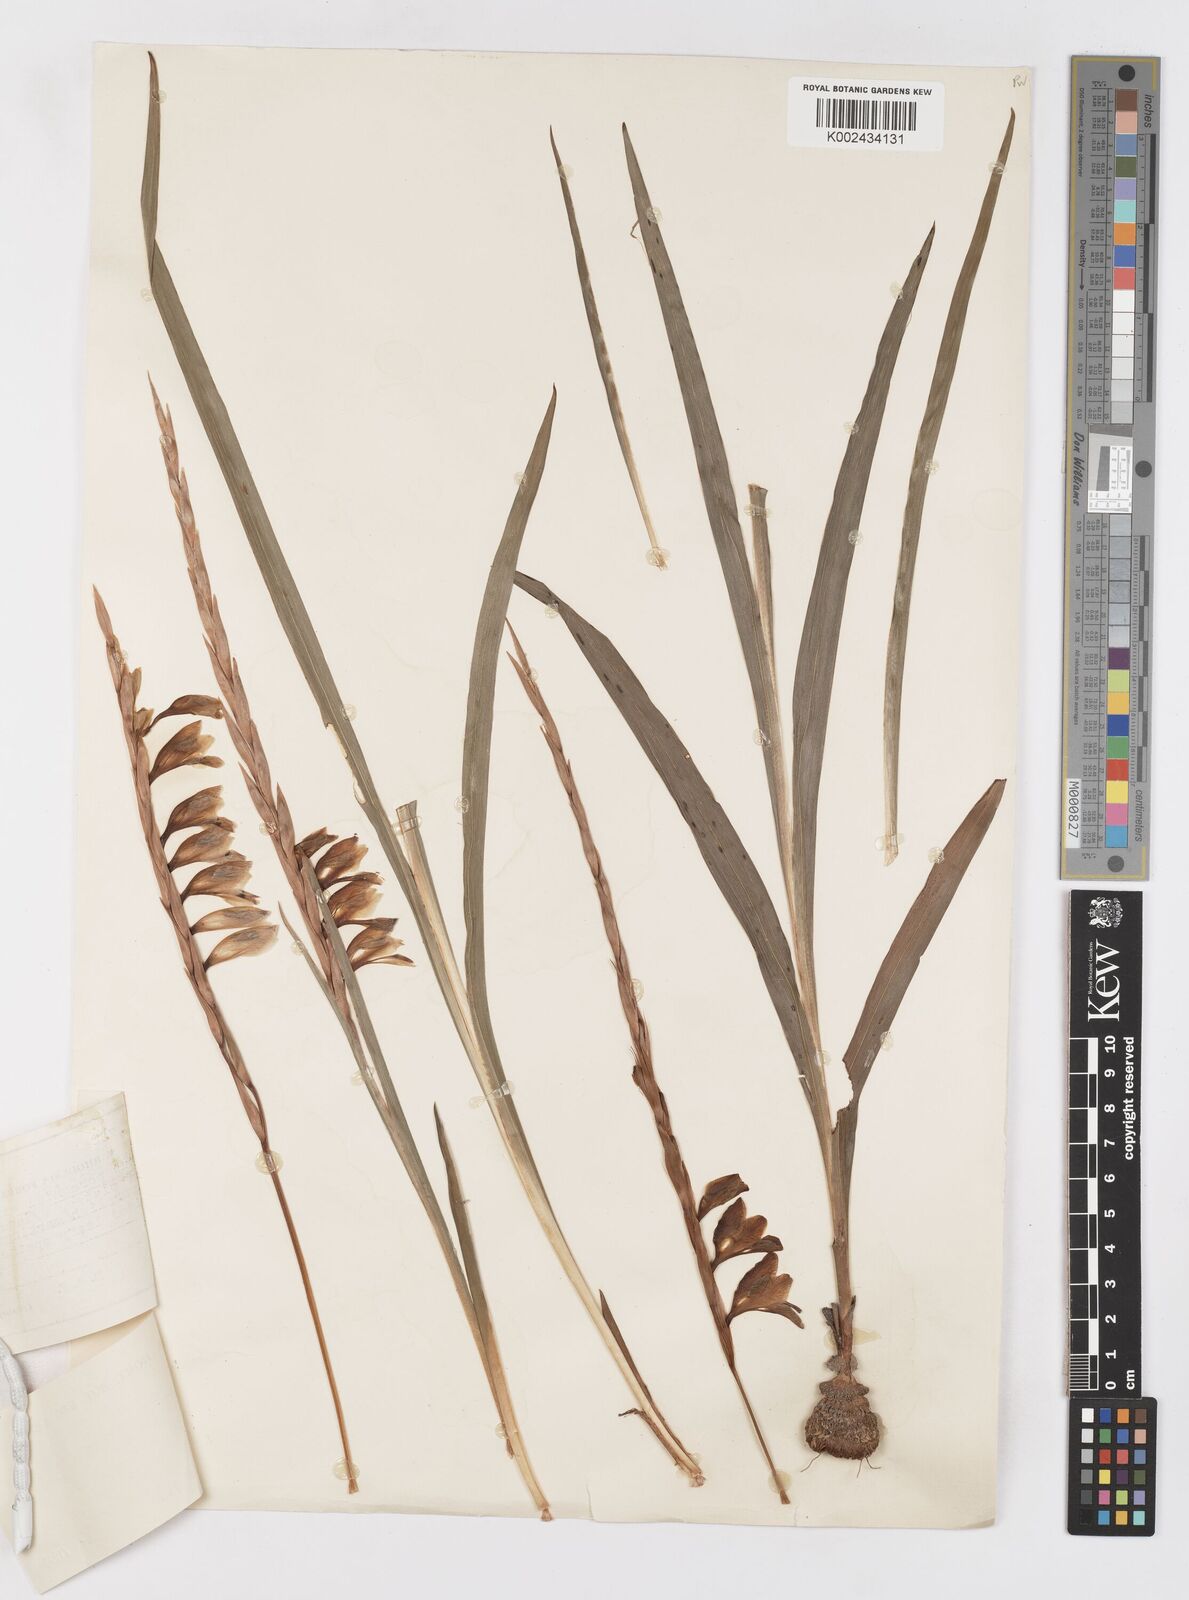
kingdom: Plantae
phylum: Tracheophyta
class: Liliopsida
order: Asparagales
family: Iridaceae
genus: Gladiolus
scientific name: Gladiolus gregarius
